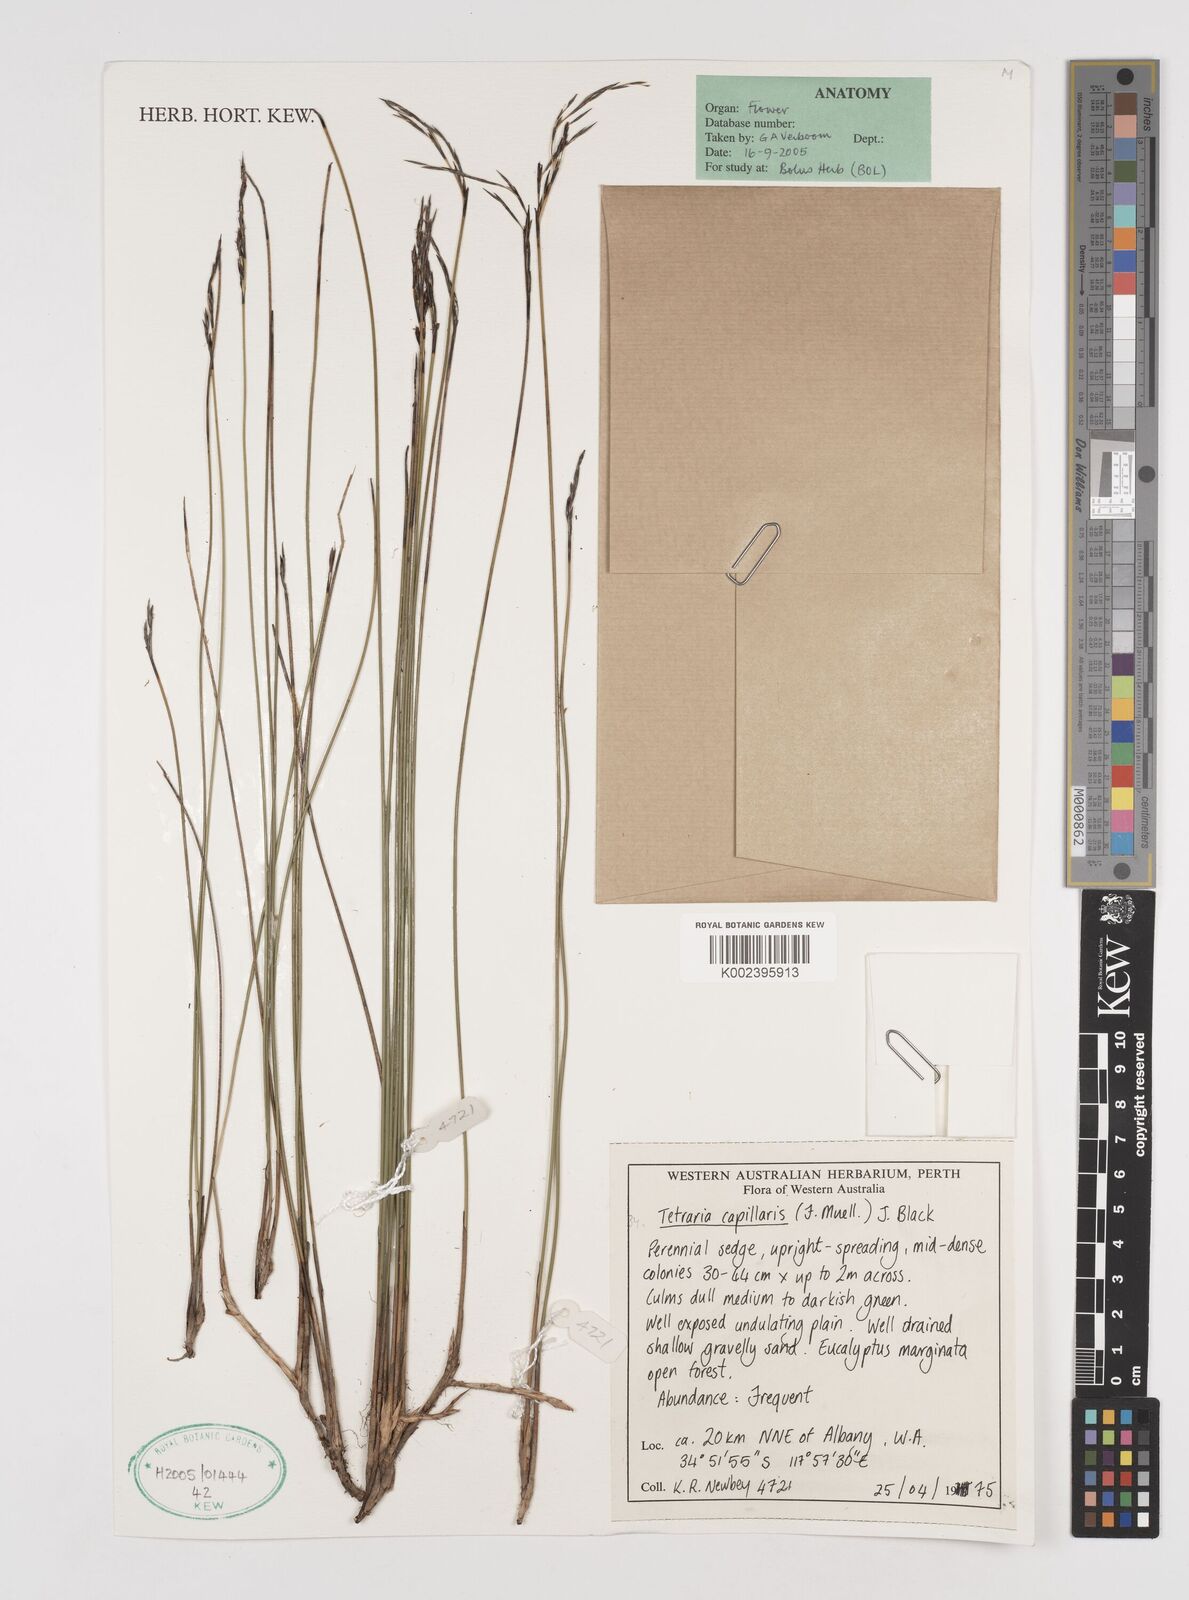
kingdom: Plantae
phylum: Tracheophyta
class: Liliopsida
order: Poales
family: Cyperaceae
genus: Tetraria
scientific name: Tetraria capillaris
